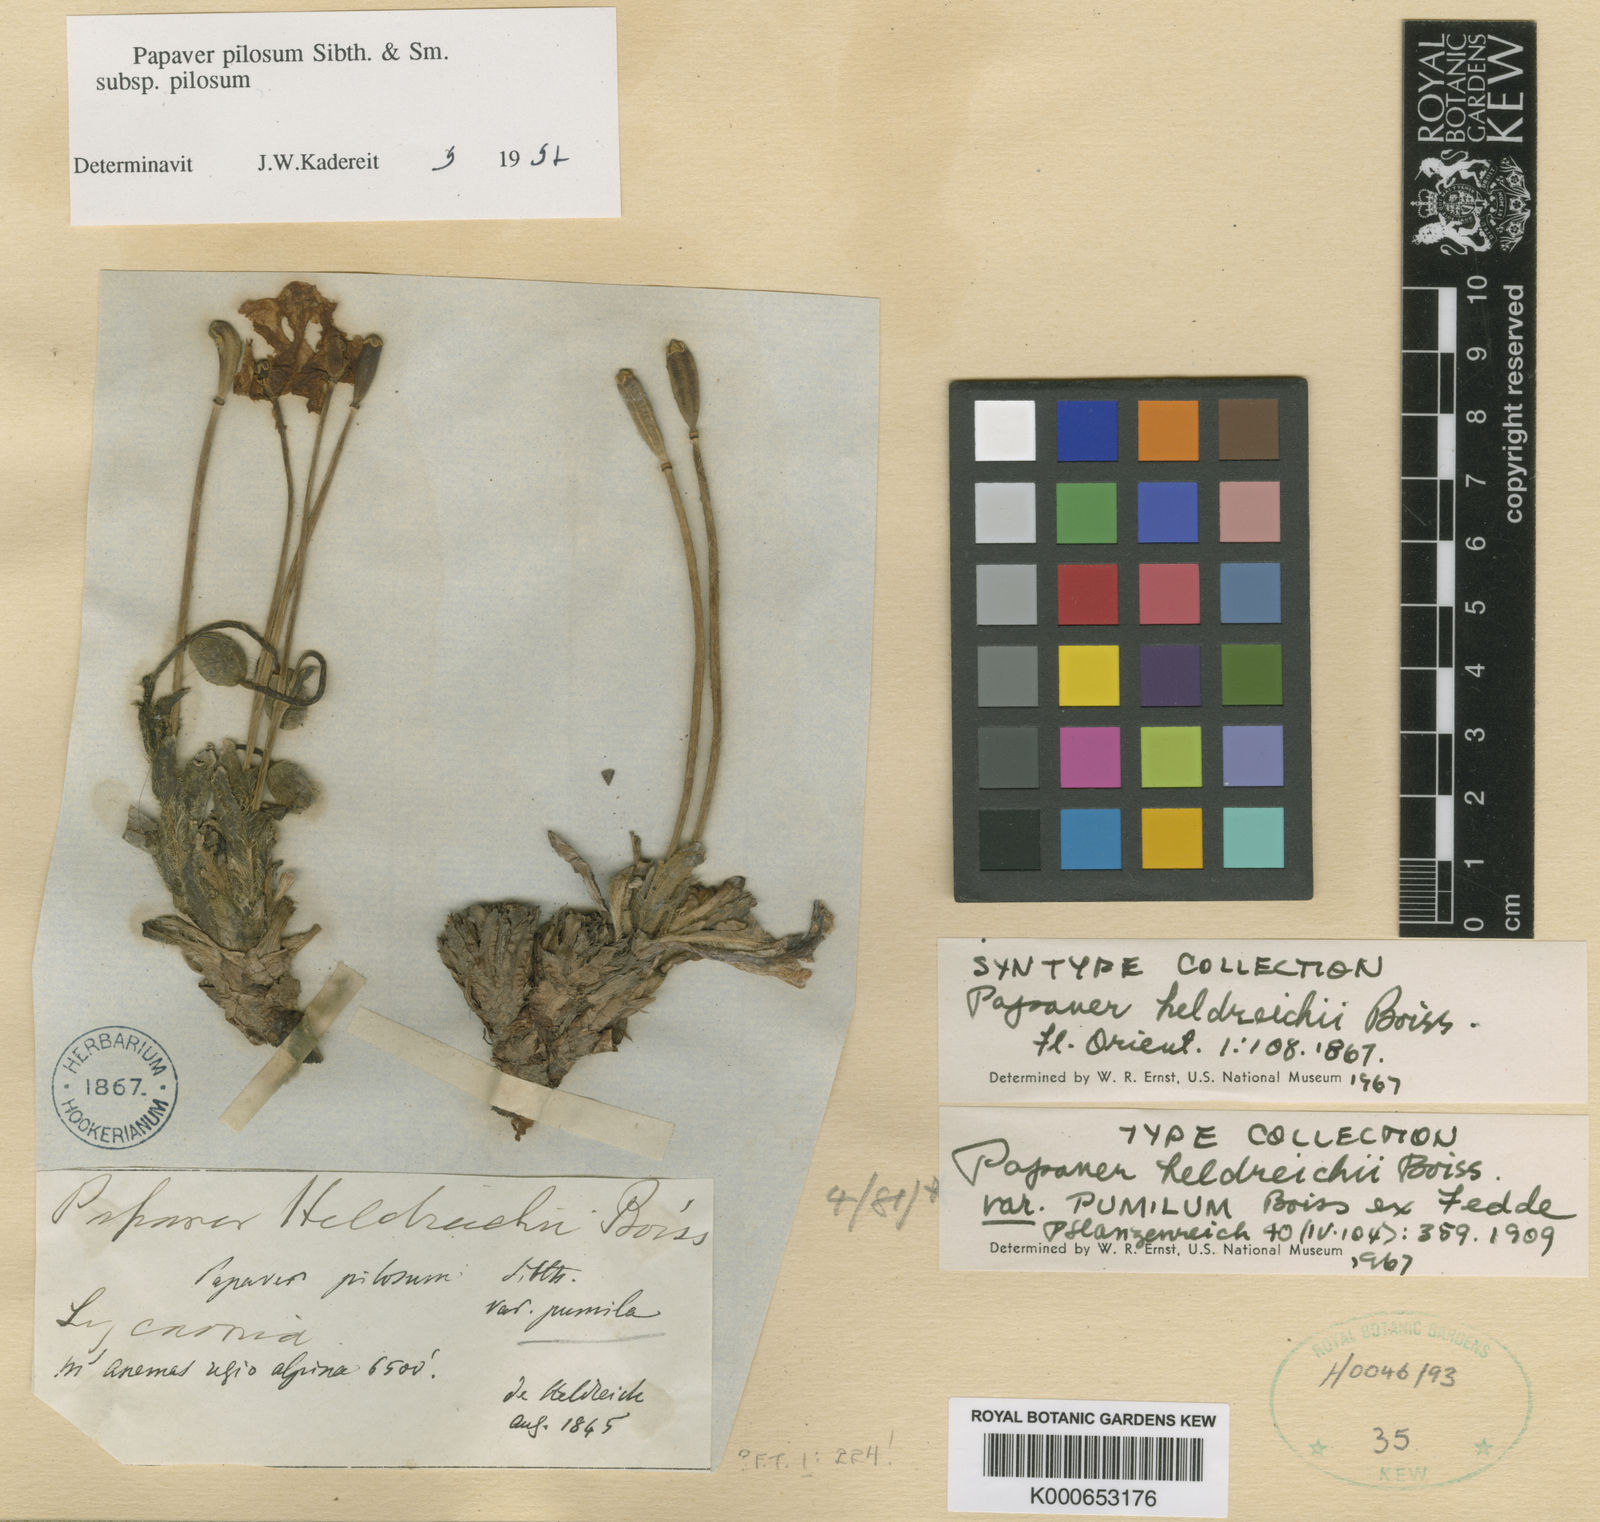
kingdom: Plantae
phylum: Tracheophyta
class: Magnoliopsida
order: Ranunculales
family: Papaveraceae
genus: Papaver
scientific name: Papaver pilosum
